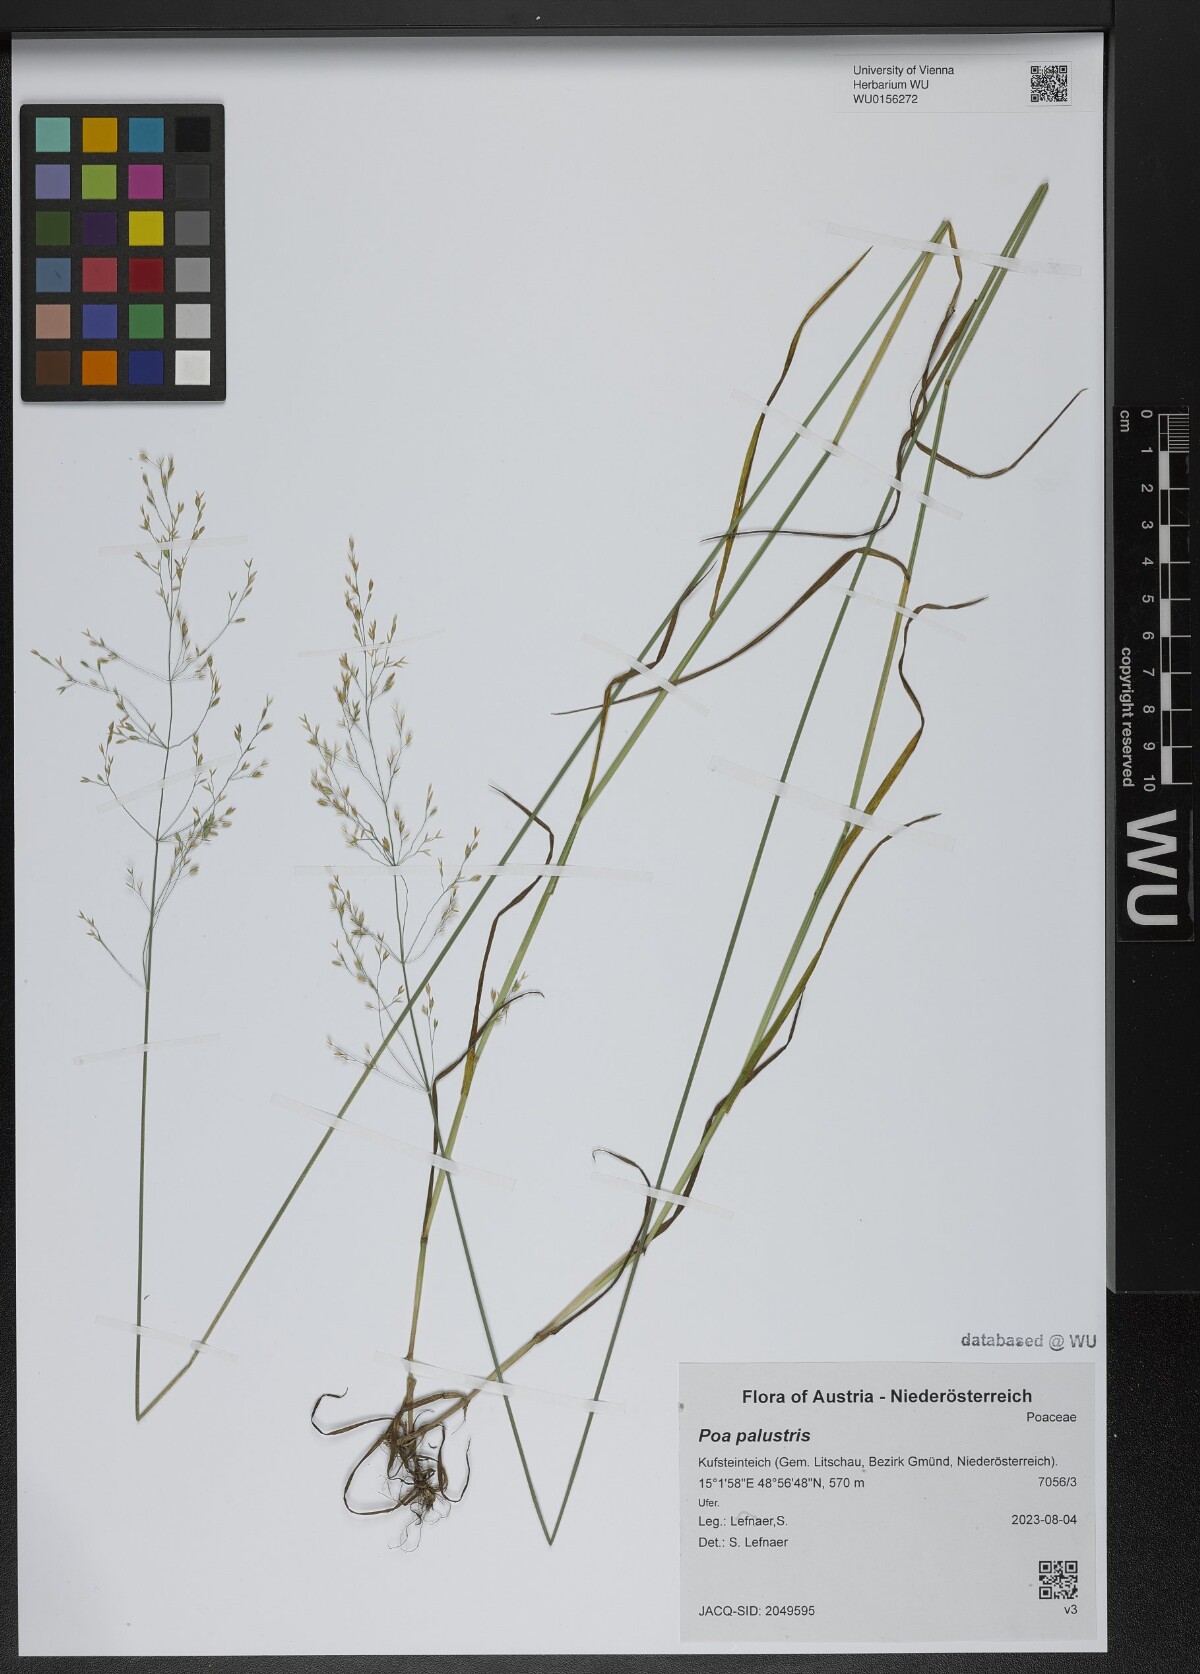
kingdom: Plantae
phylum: Tracheophyta
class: Liliopsida
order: Poales
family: Poaceae
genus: Poa
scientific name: Poa palustris
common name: Swamp meadow-grass
